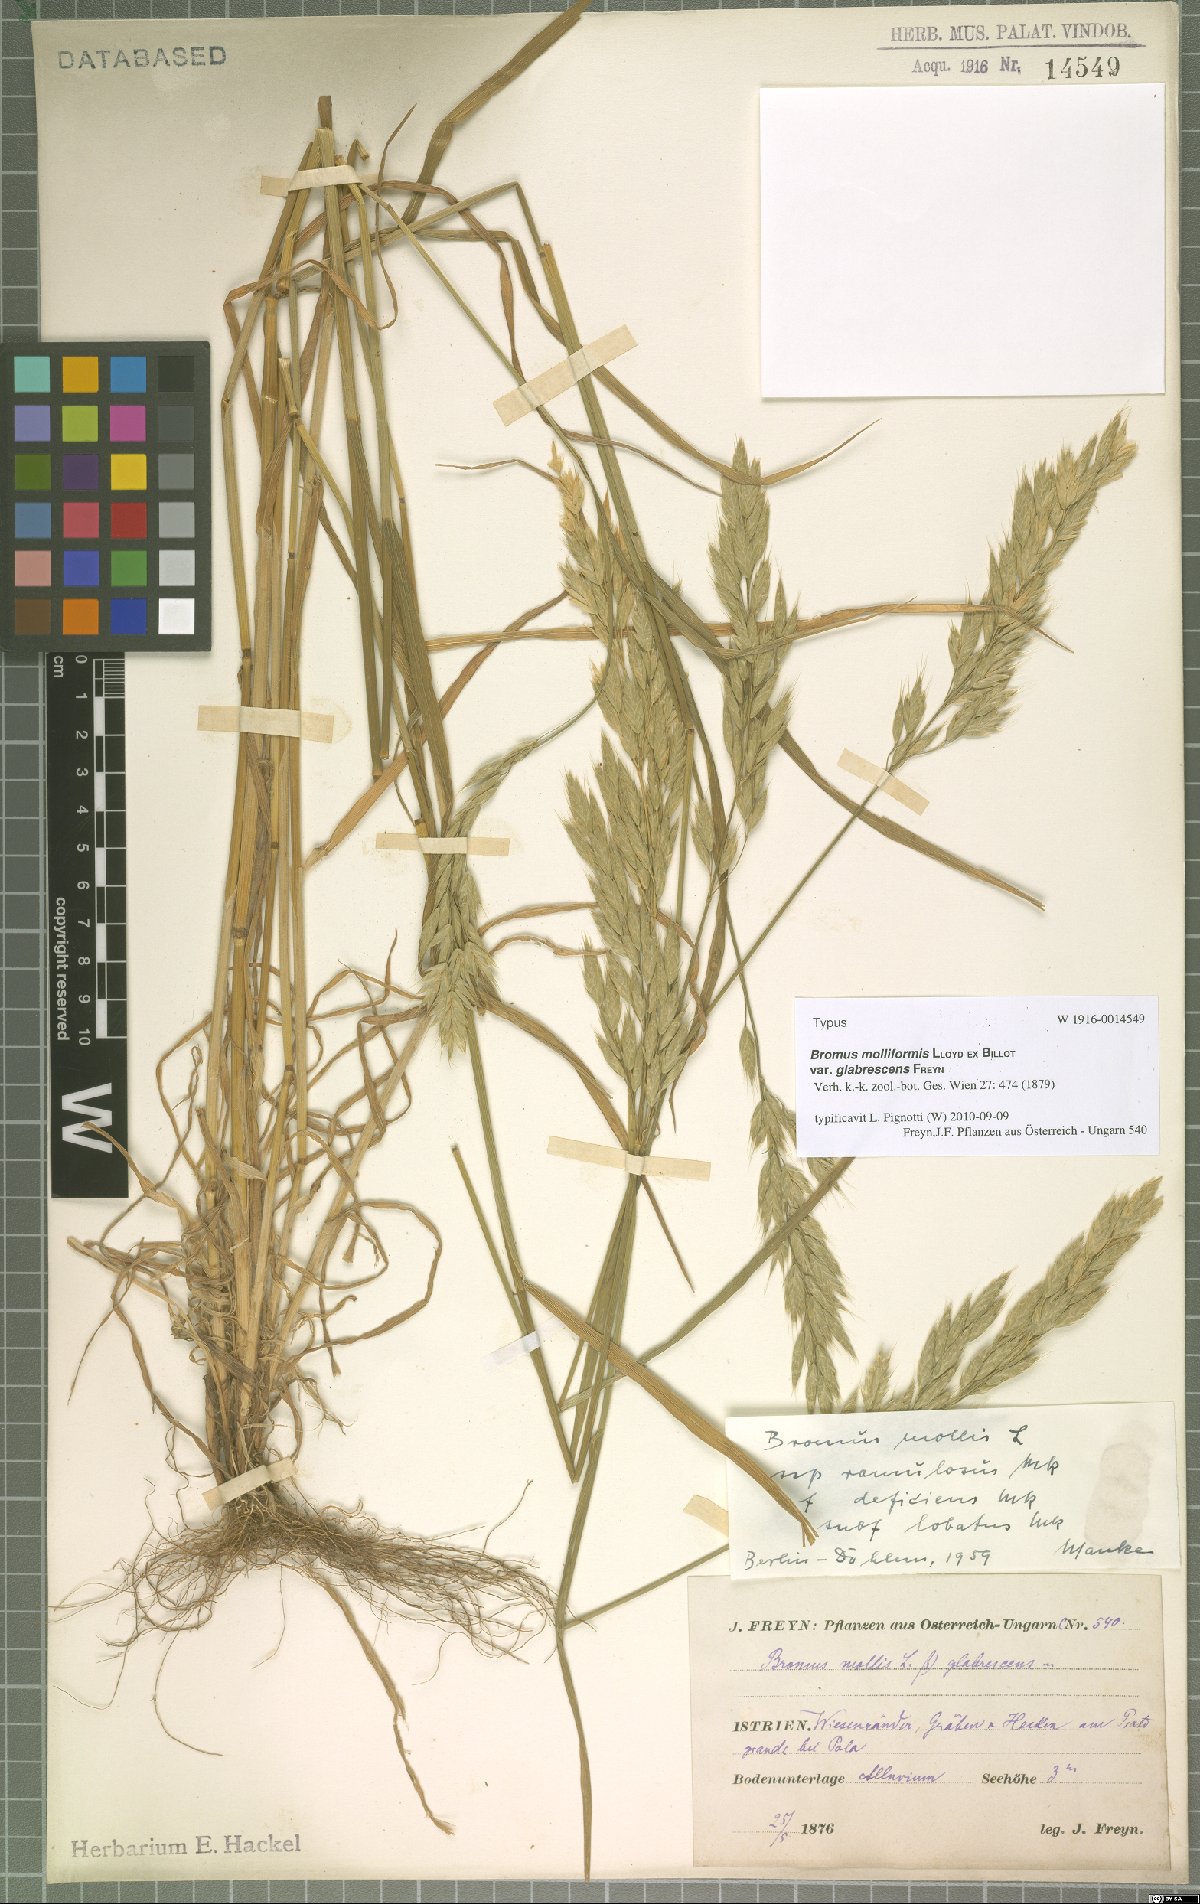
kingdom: Plantae
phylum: Tracheophyta
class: Liliopsida
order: Poales
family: Poaceae
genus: Bromus
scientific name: Bromus hordeaceus
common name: Soft brome
